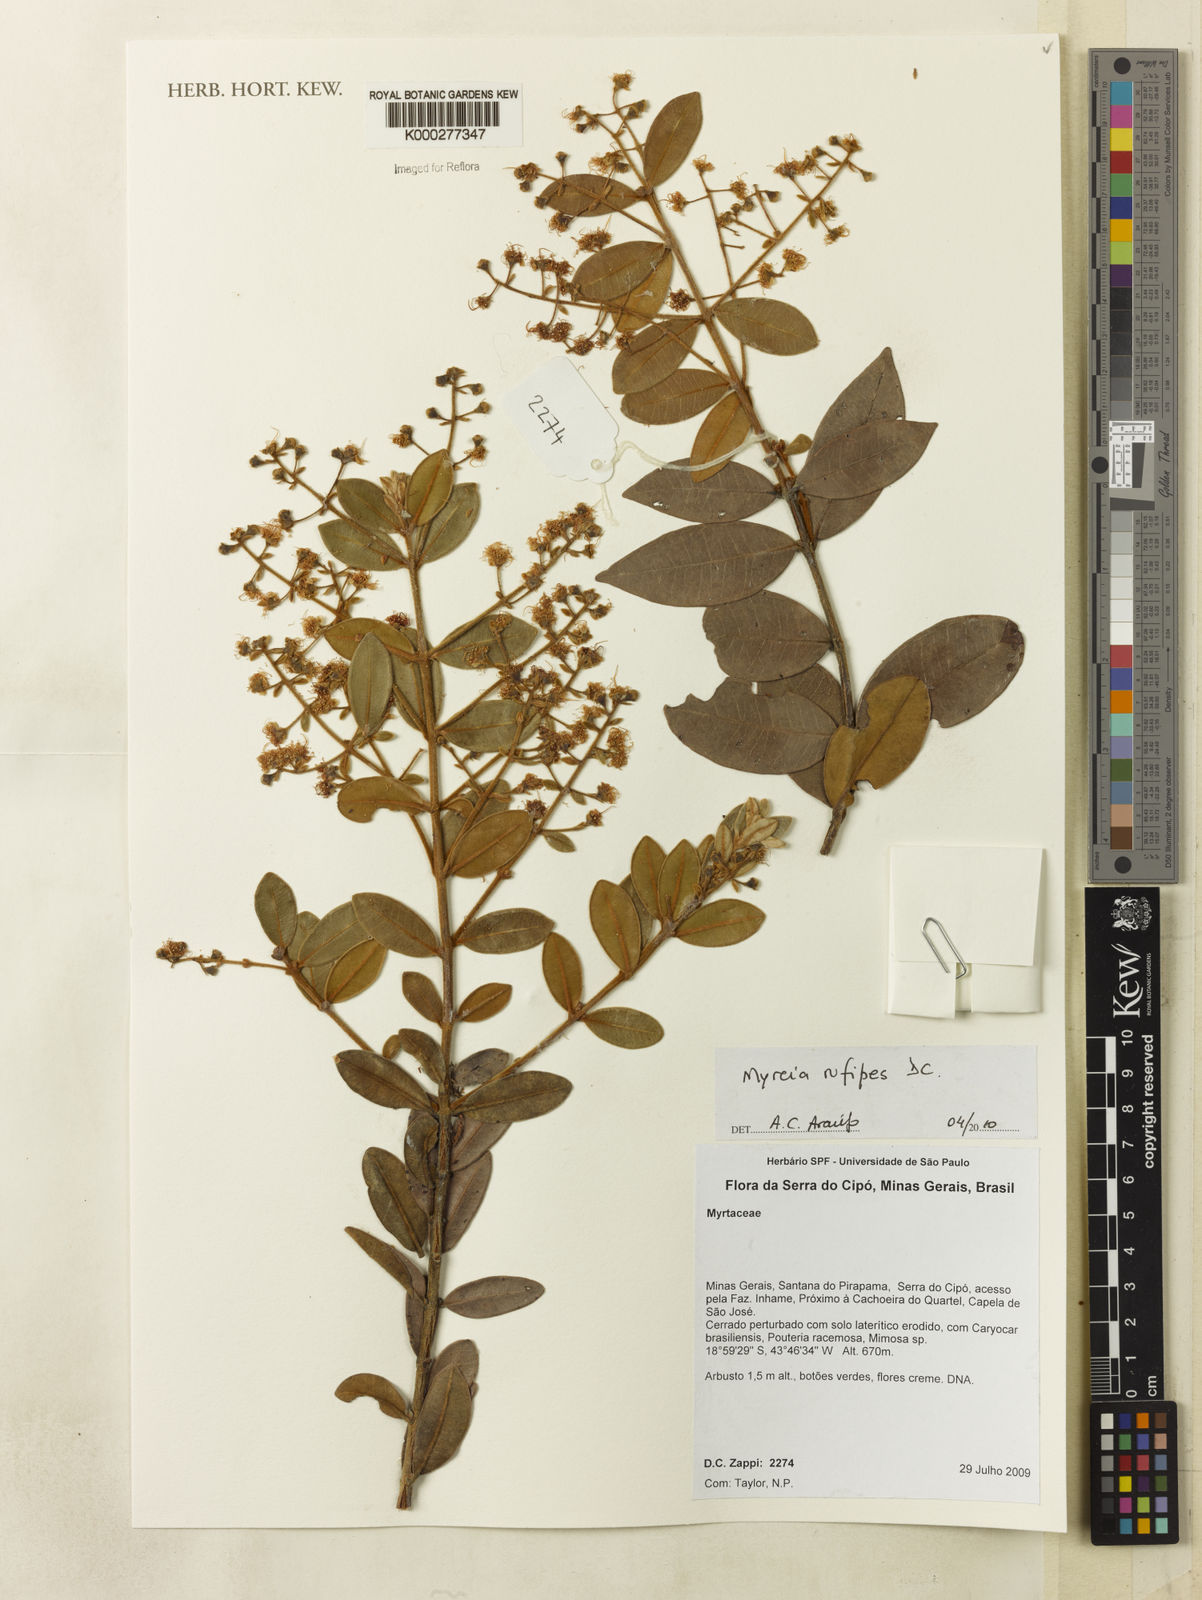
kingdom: Plantae
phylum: Tracheophyta
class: Magnoliopsida
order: Myrtales
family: Myrtaceae
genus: Myrcia
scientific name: Myrcia rufipes
